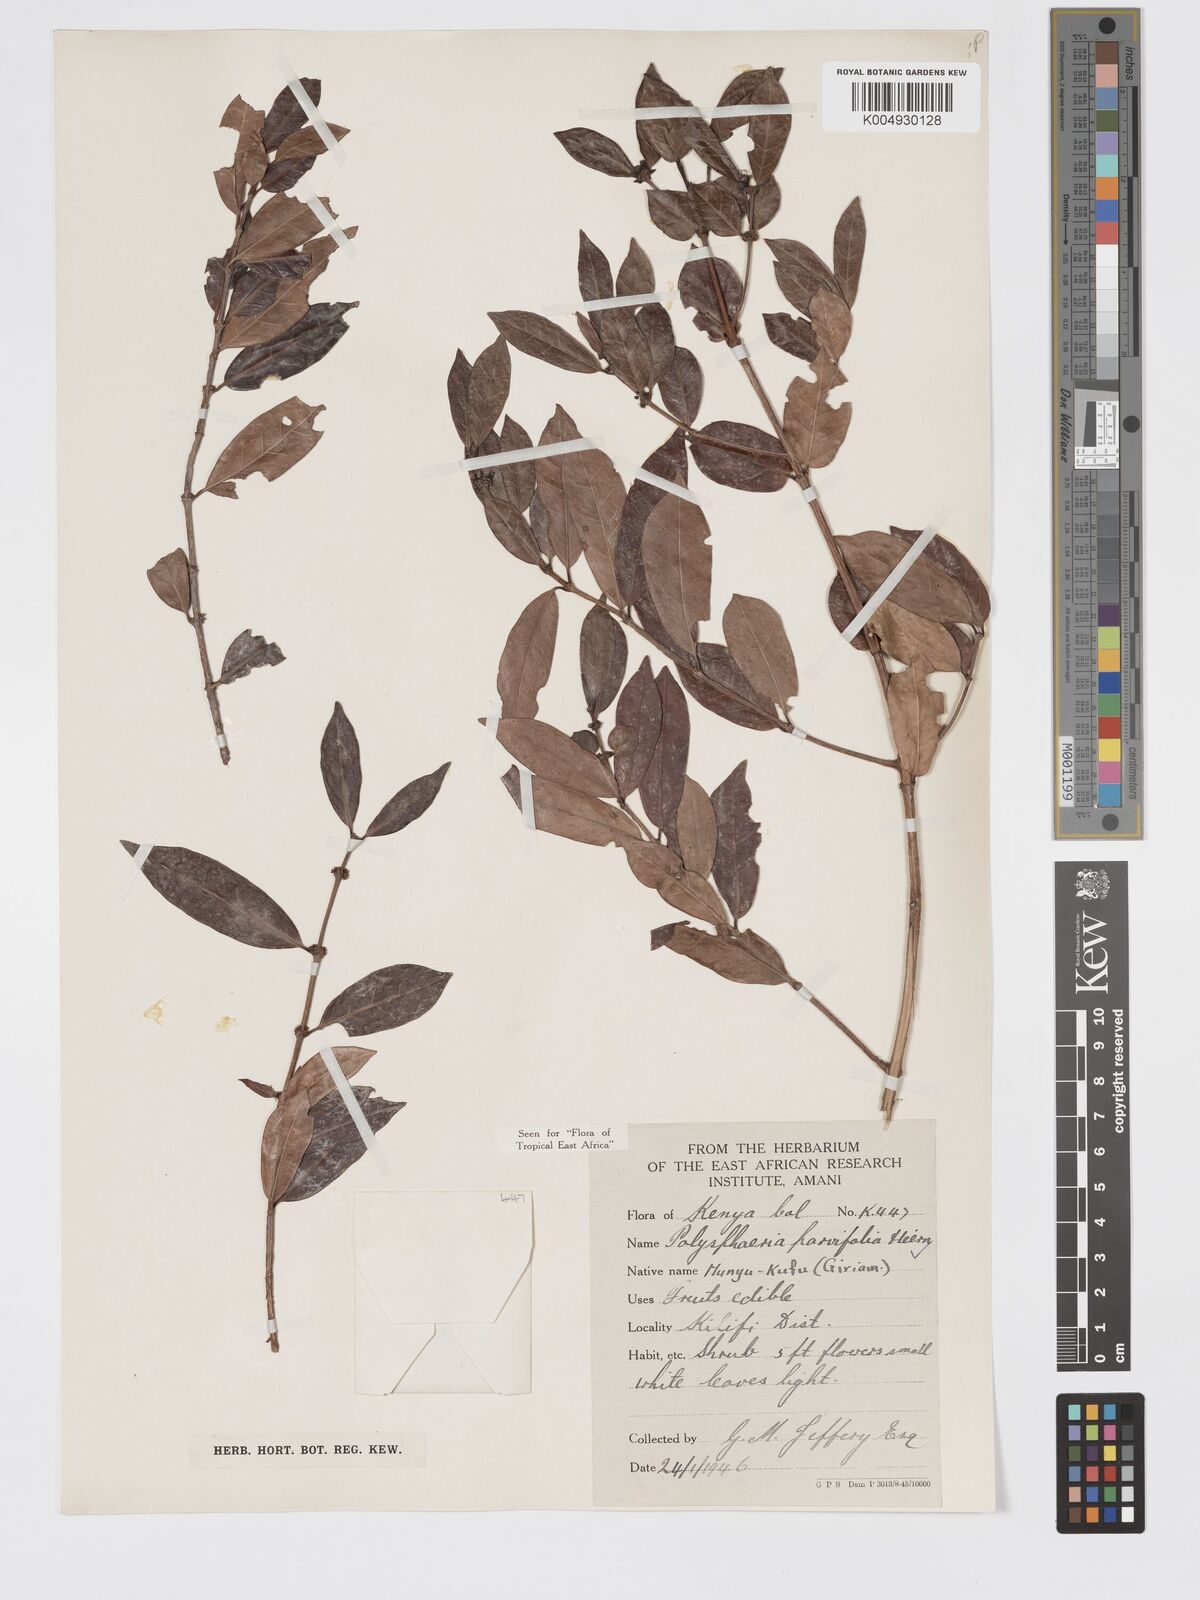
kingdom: Plantae
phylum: Tracheophyta
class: Magnoliopsida
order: Gentianales
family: Rubiaceae
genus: Polysphaeria
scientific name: Polysphaeria parvifolia
